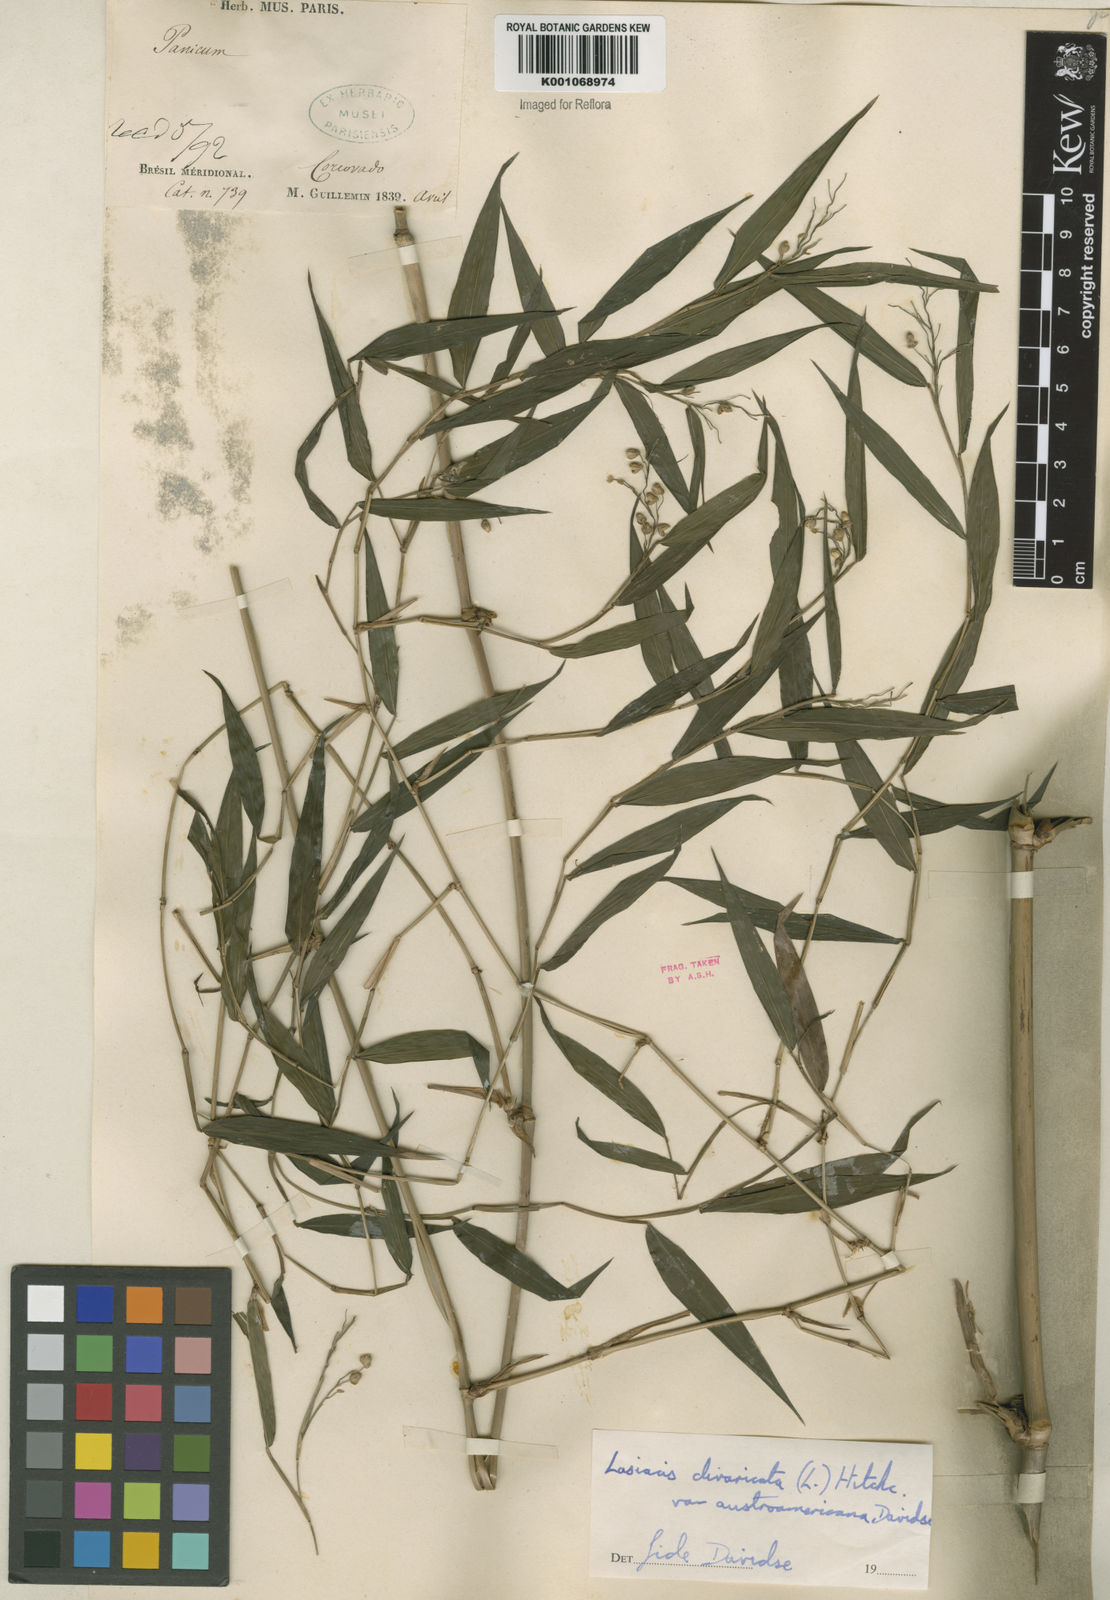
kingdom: Plantae
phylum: Tracheophyta
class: Liliopsida
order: Poales
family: Poaceae
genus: Lasiacis
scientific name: Lasiacis divaricata
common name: Smallcane
